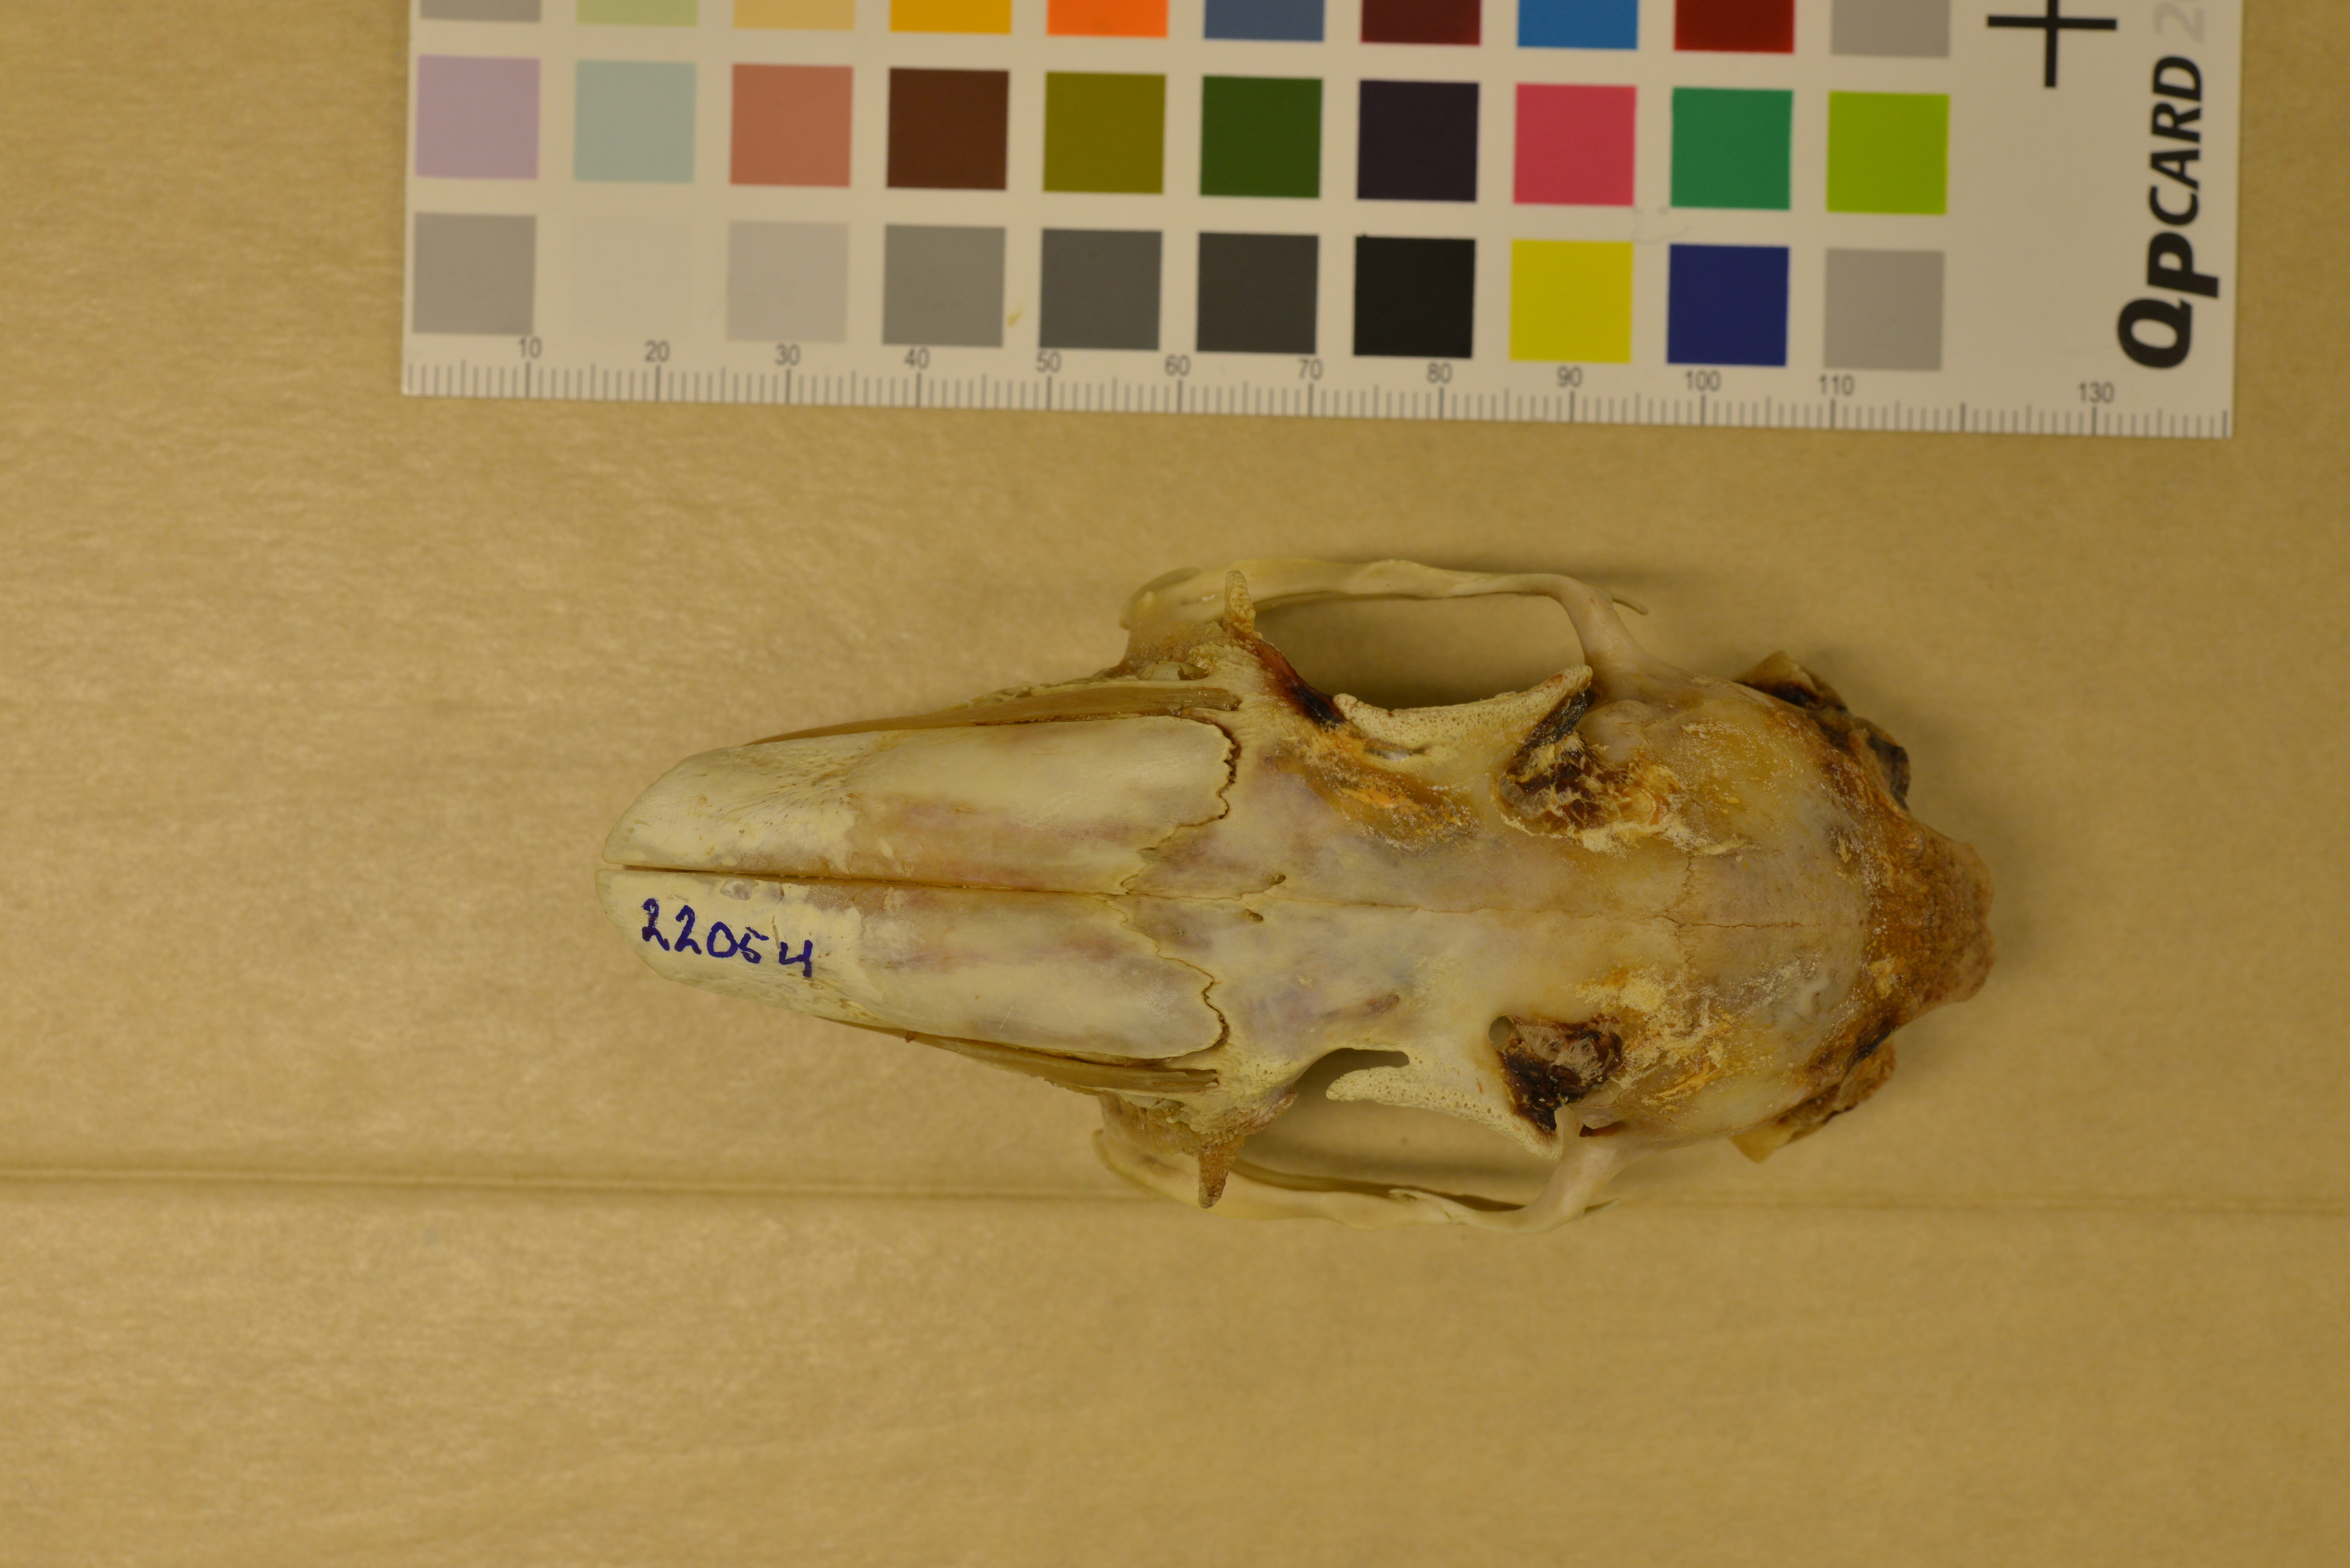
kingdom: Animalia
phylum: Chordata
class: Mammalia
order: Lagomorpha
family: Leporidae
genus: Lepus
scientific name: Lepus europaeus
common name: European hare
